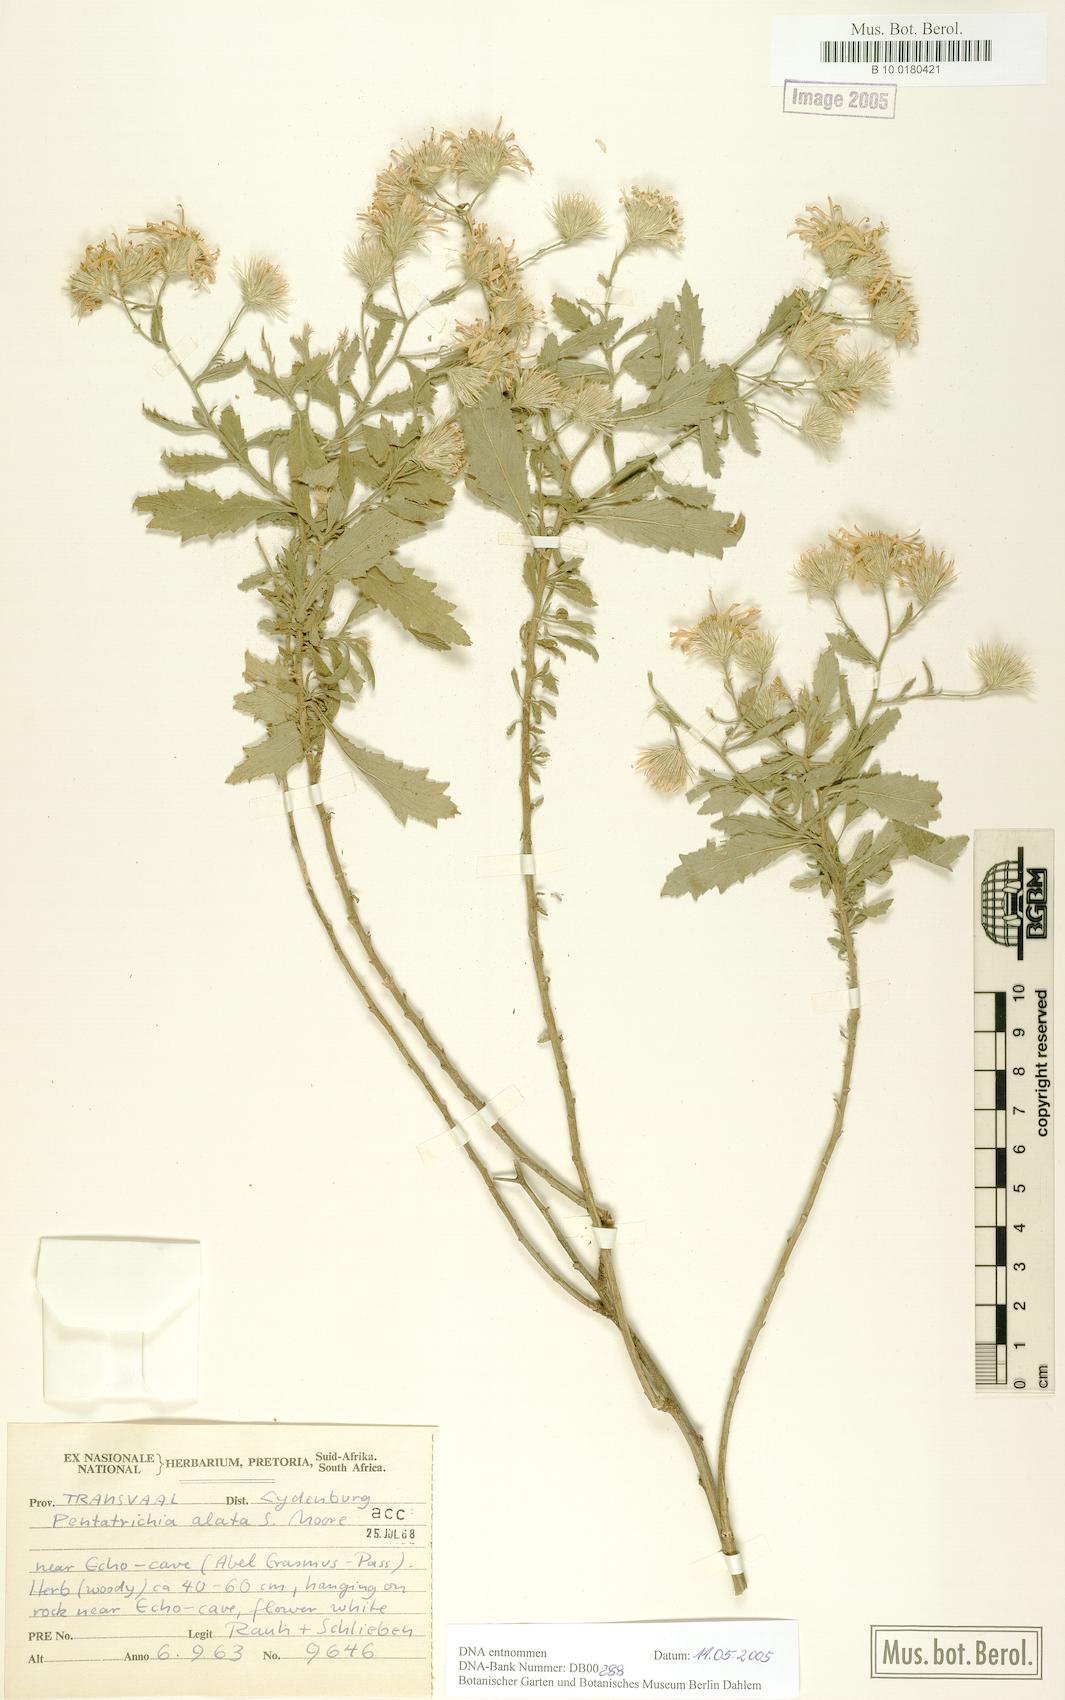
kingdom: Plantae
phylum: Tracheophyta
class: Magnoliopsida
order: Asterales
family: Asteraceae
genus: Pentatrichia
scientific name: Pentatrichia alata
